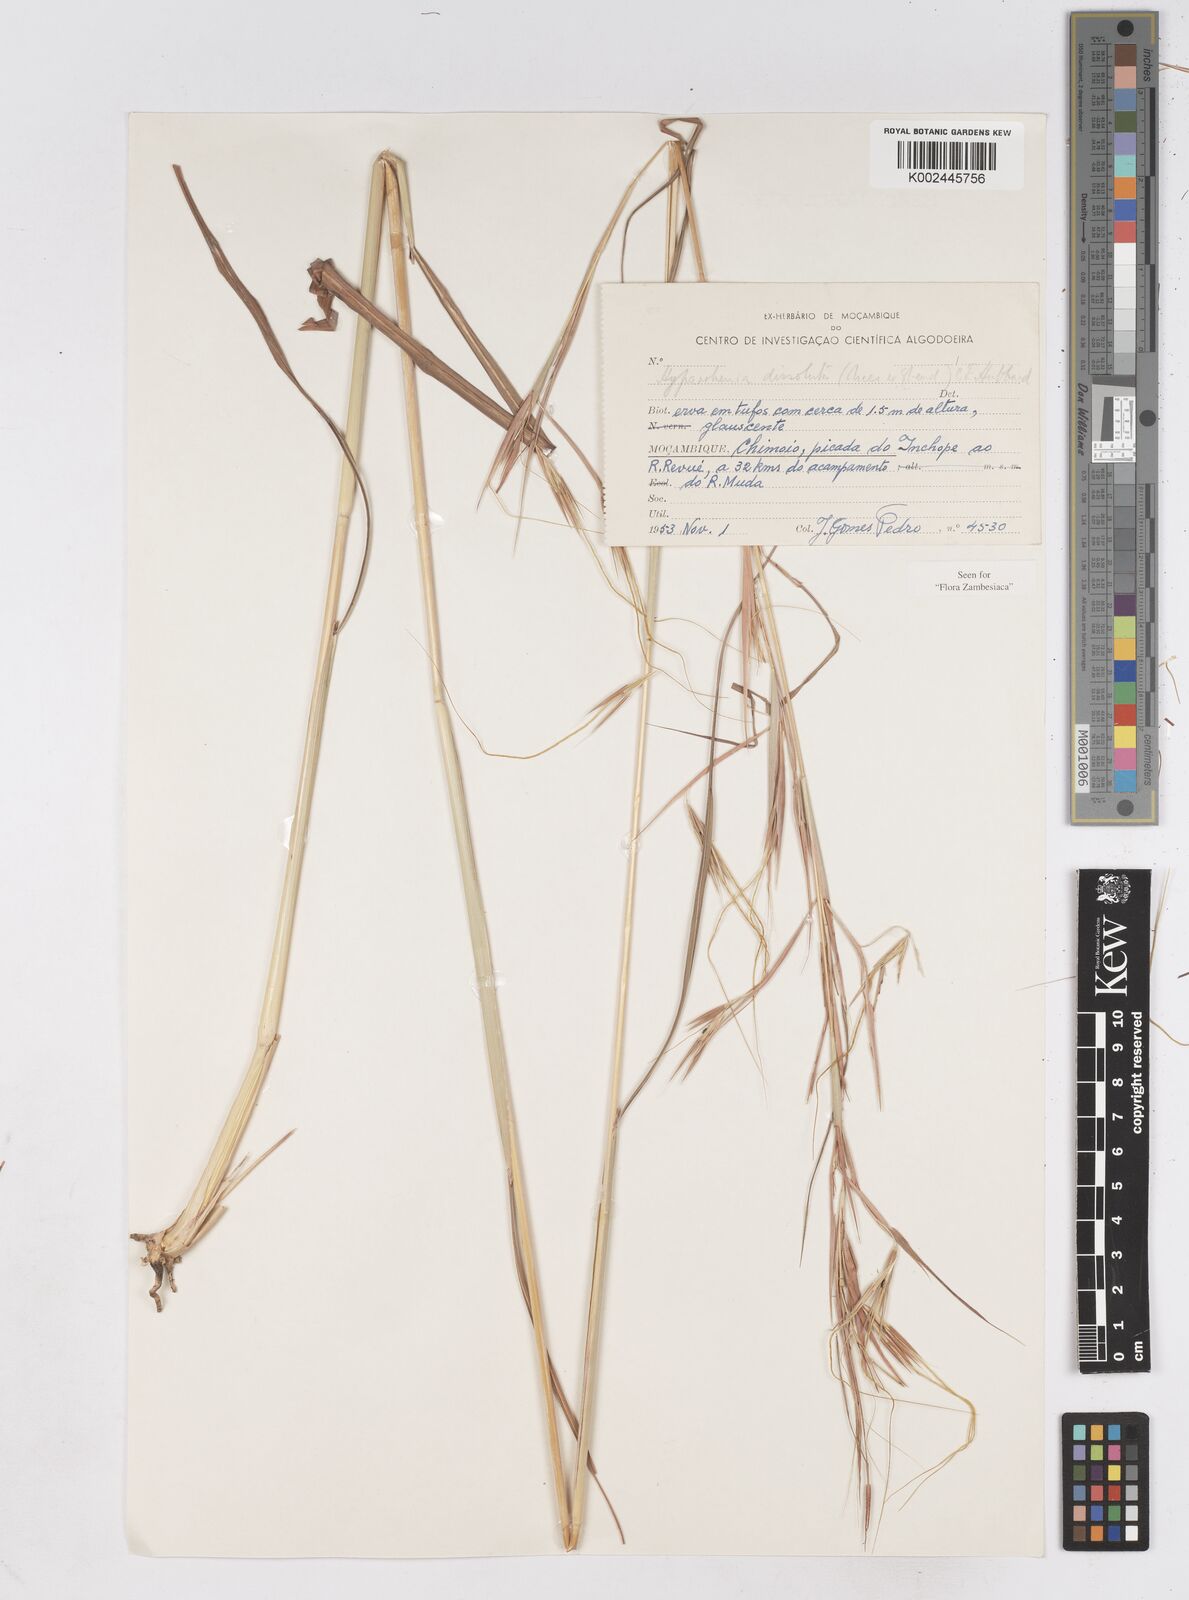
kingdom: Plantae
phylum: Tracheophyta
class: Liliopsida
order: Poales
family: Poaceae
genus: Hyperthelia
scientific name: Hyperthelia dissoluta
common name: Yellow thatching grass
